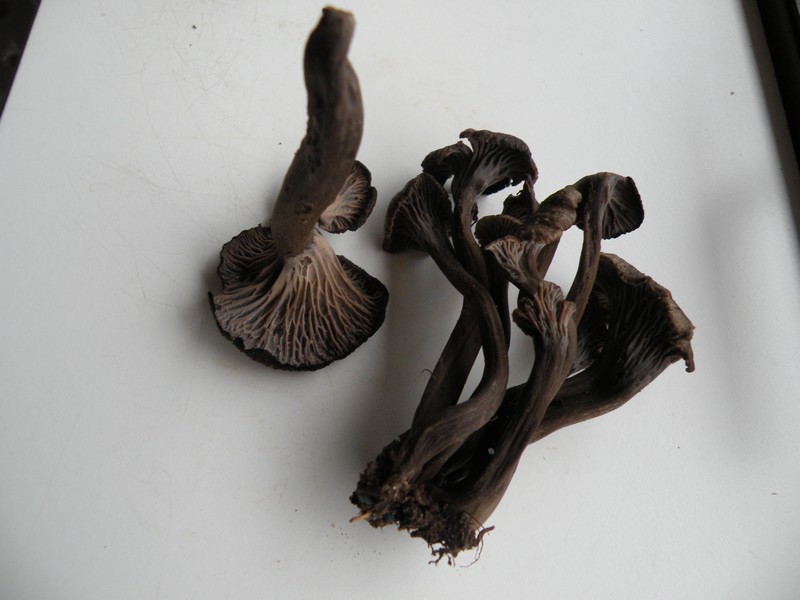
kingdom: Fungi
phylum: Basidiomycota
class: Agaricomycetes
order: Cantharellales
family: Hydnaceae
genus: Cantharellus
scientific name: Cantharellus cinereus
